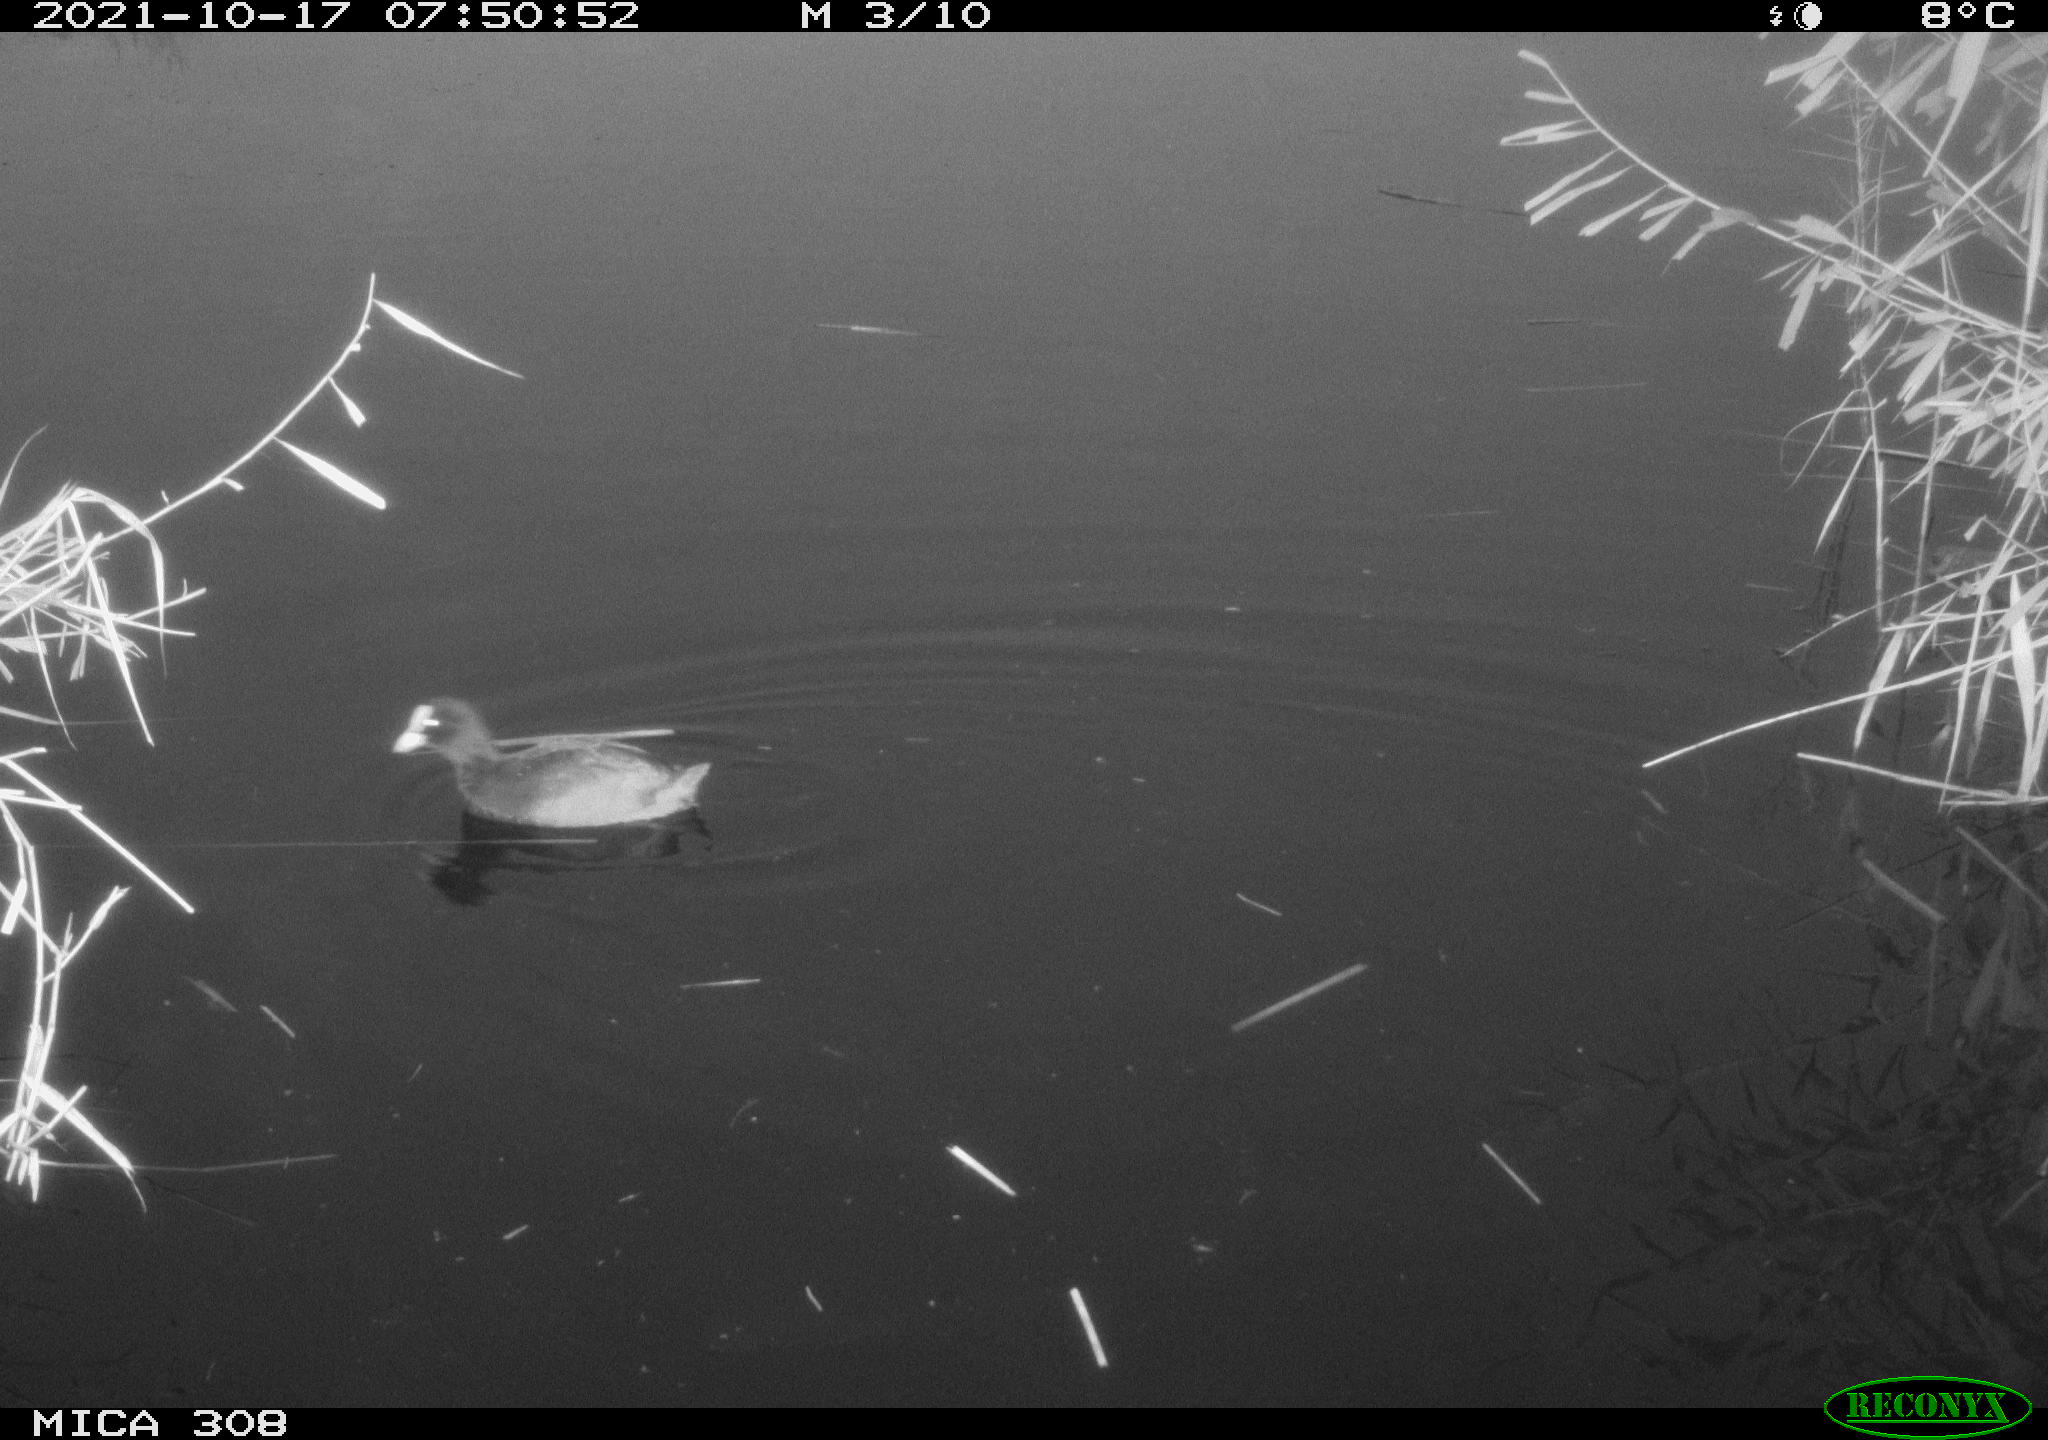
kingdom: Animalia
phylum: Chordata
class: Aves
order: Gruiformes
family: Rallidae
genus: Fulica
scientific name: Fulica atra
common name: Eurasian coot
